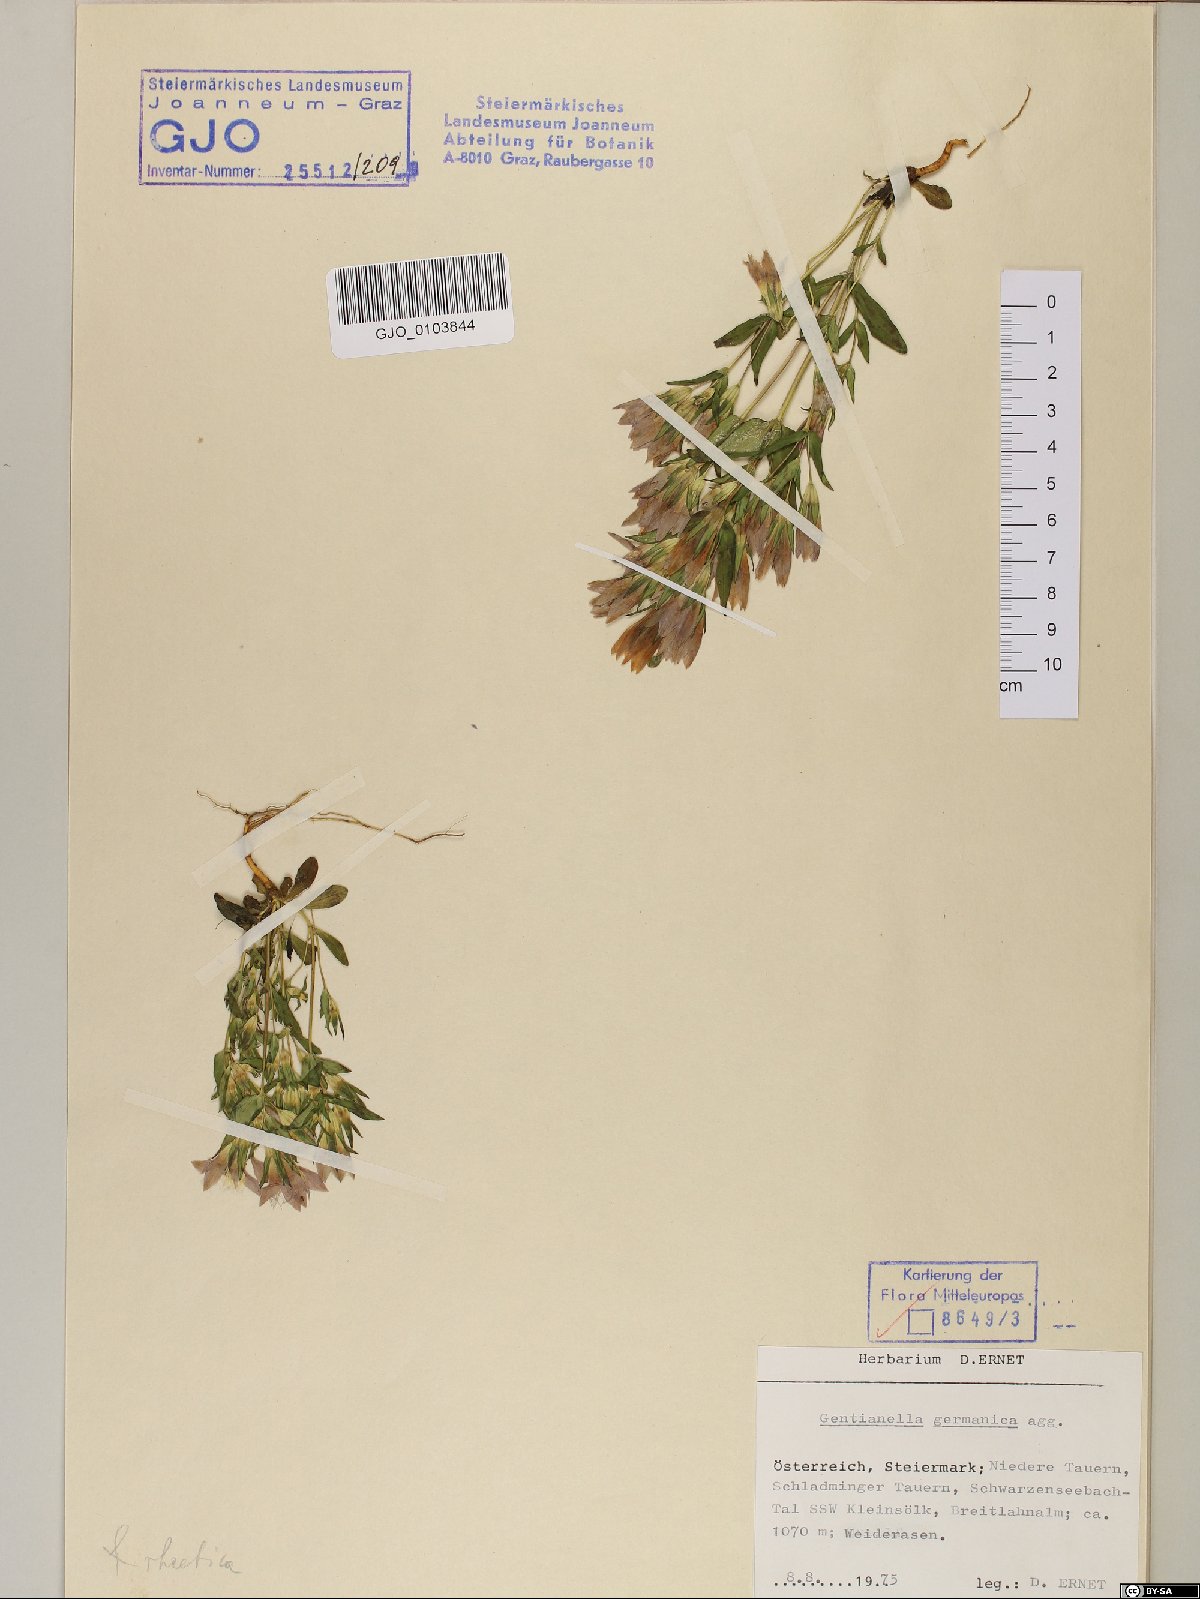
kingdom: Plantae
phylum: Tracheophyta
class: Magnoliopsida
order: Gentianales
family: Gentianaceae
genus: Gentianella
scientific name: Gentianella germanica
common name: Chiltern-gentian
